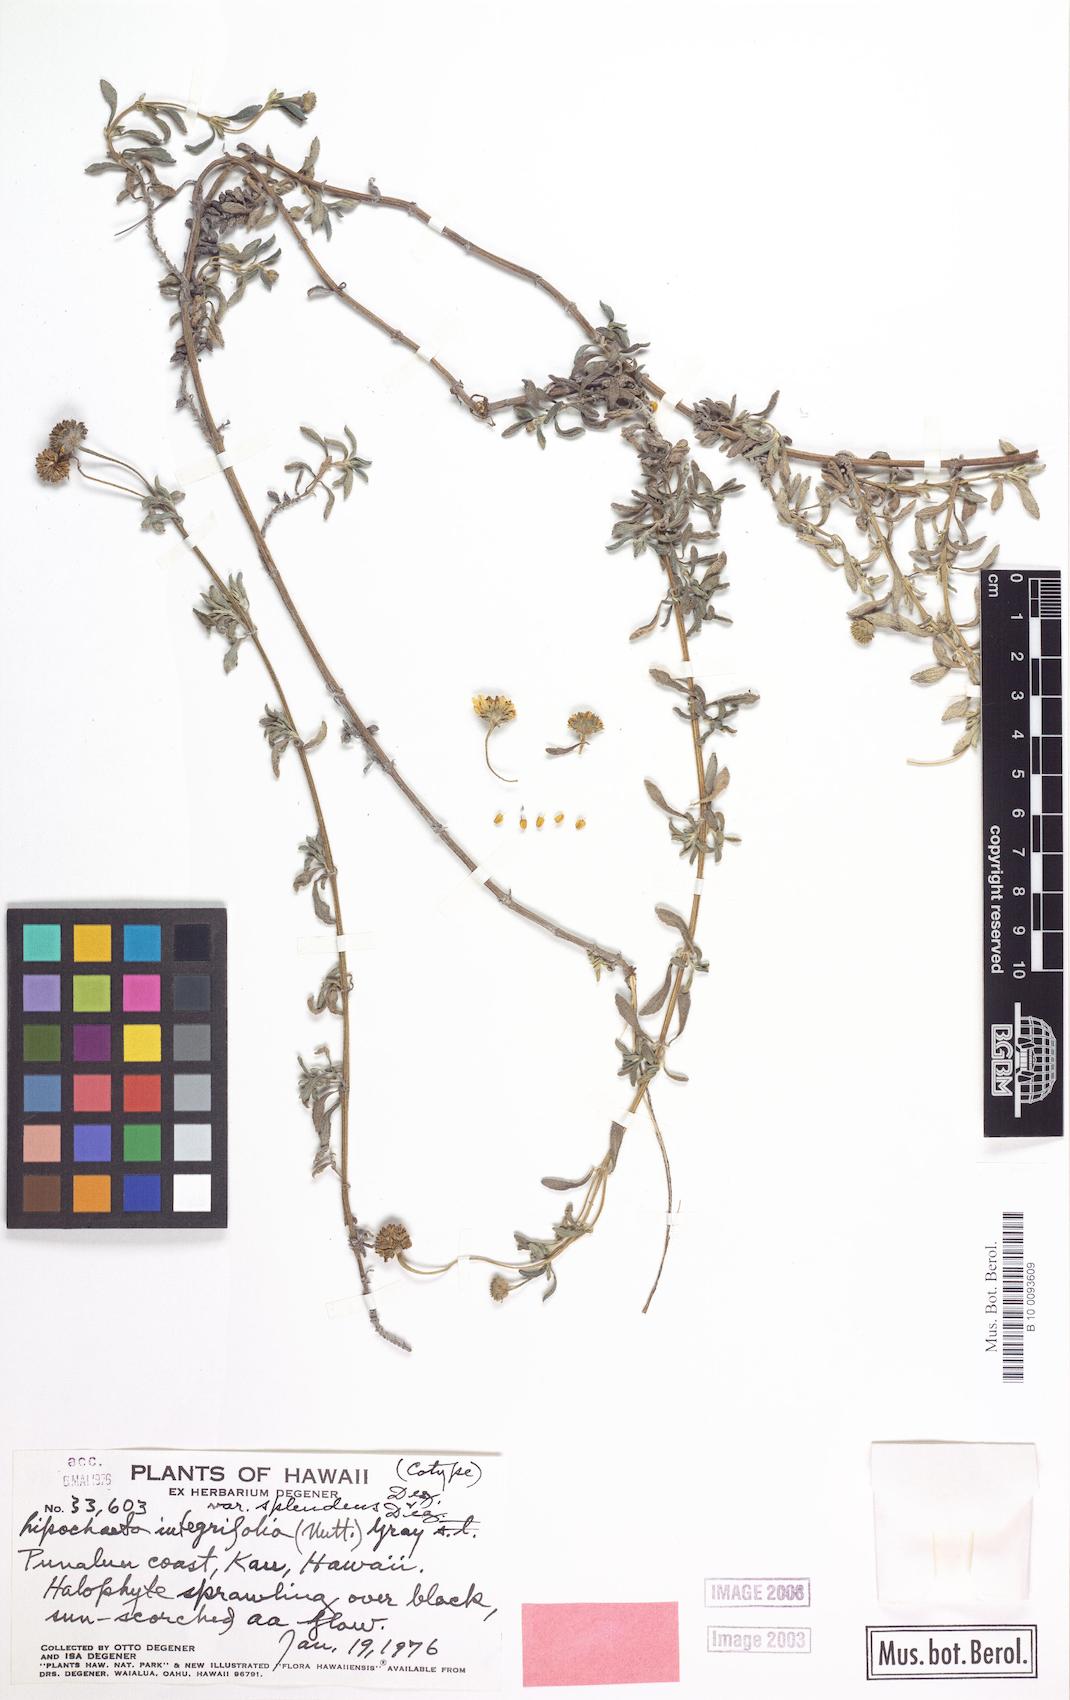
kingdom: Plantae
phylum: Tracheophyta
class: Magnoliopsida
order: Asterales
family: Asteraceae
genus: Lipochaeta
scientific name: Lipochaeta integrifolia
